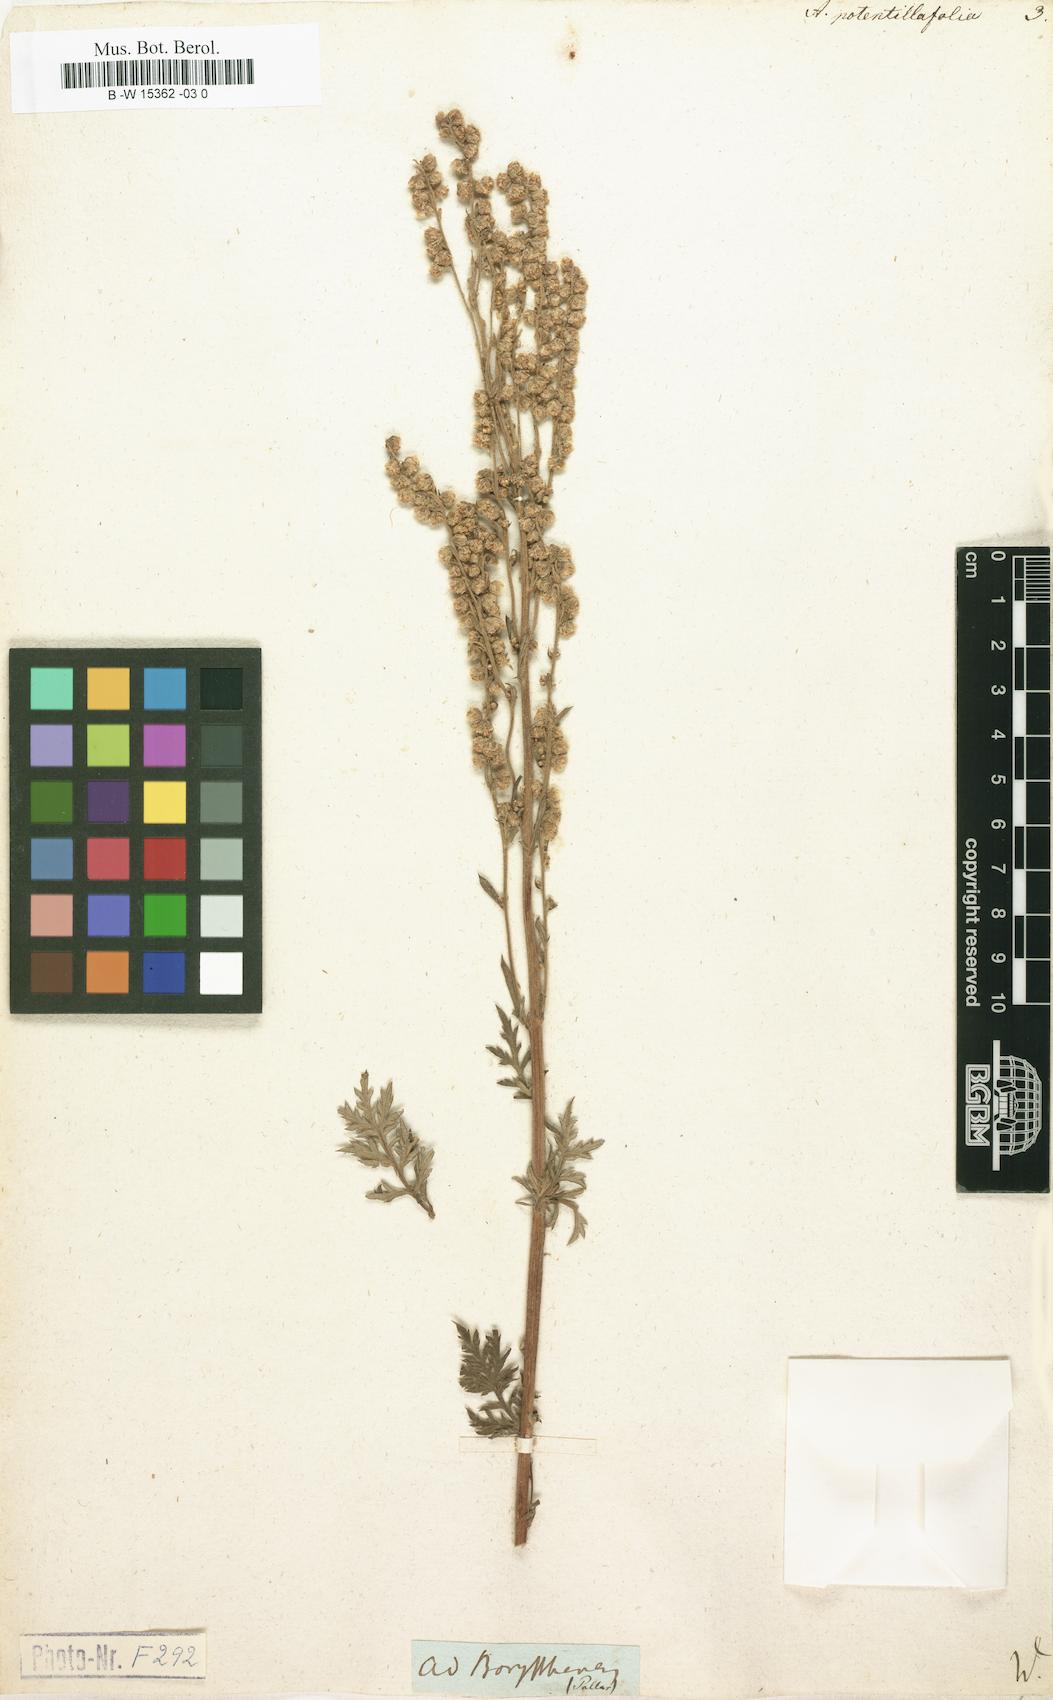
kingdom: Plantae
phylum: Tracheophyta
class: Magnoliopsida
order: Asterales
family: Asteraceae
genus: Artemisia
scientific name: Artemisia armeniaca
